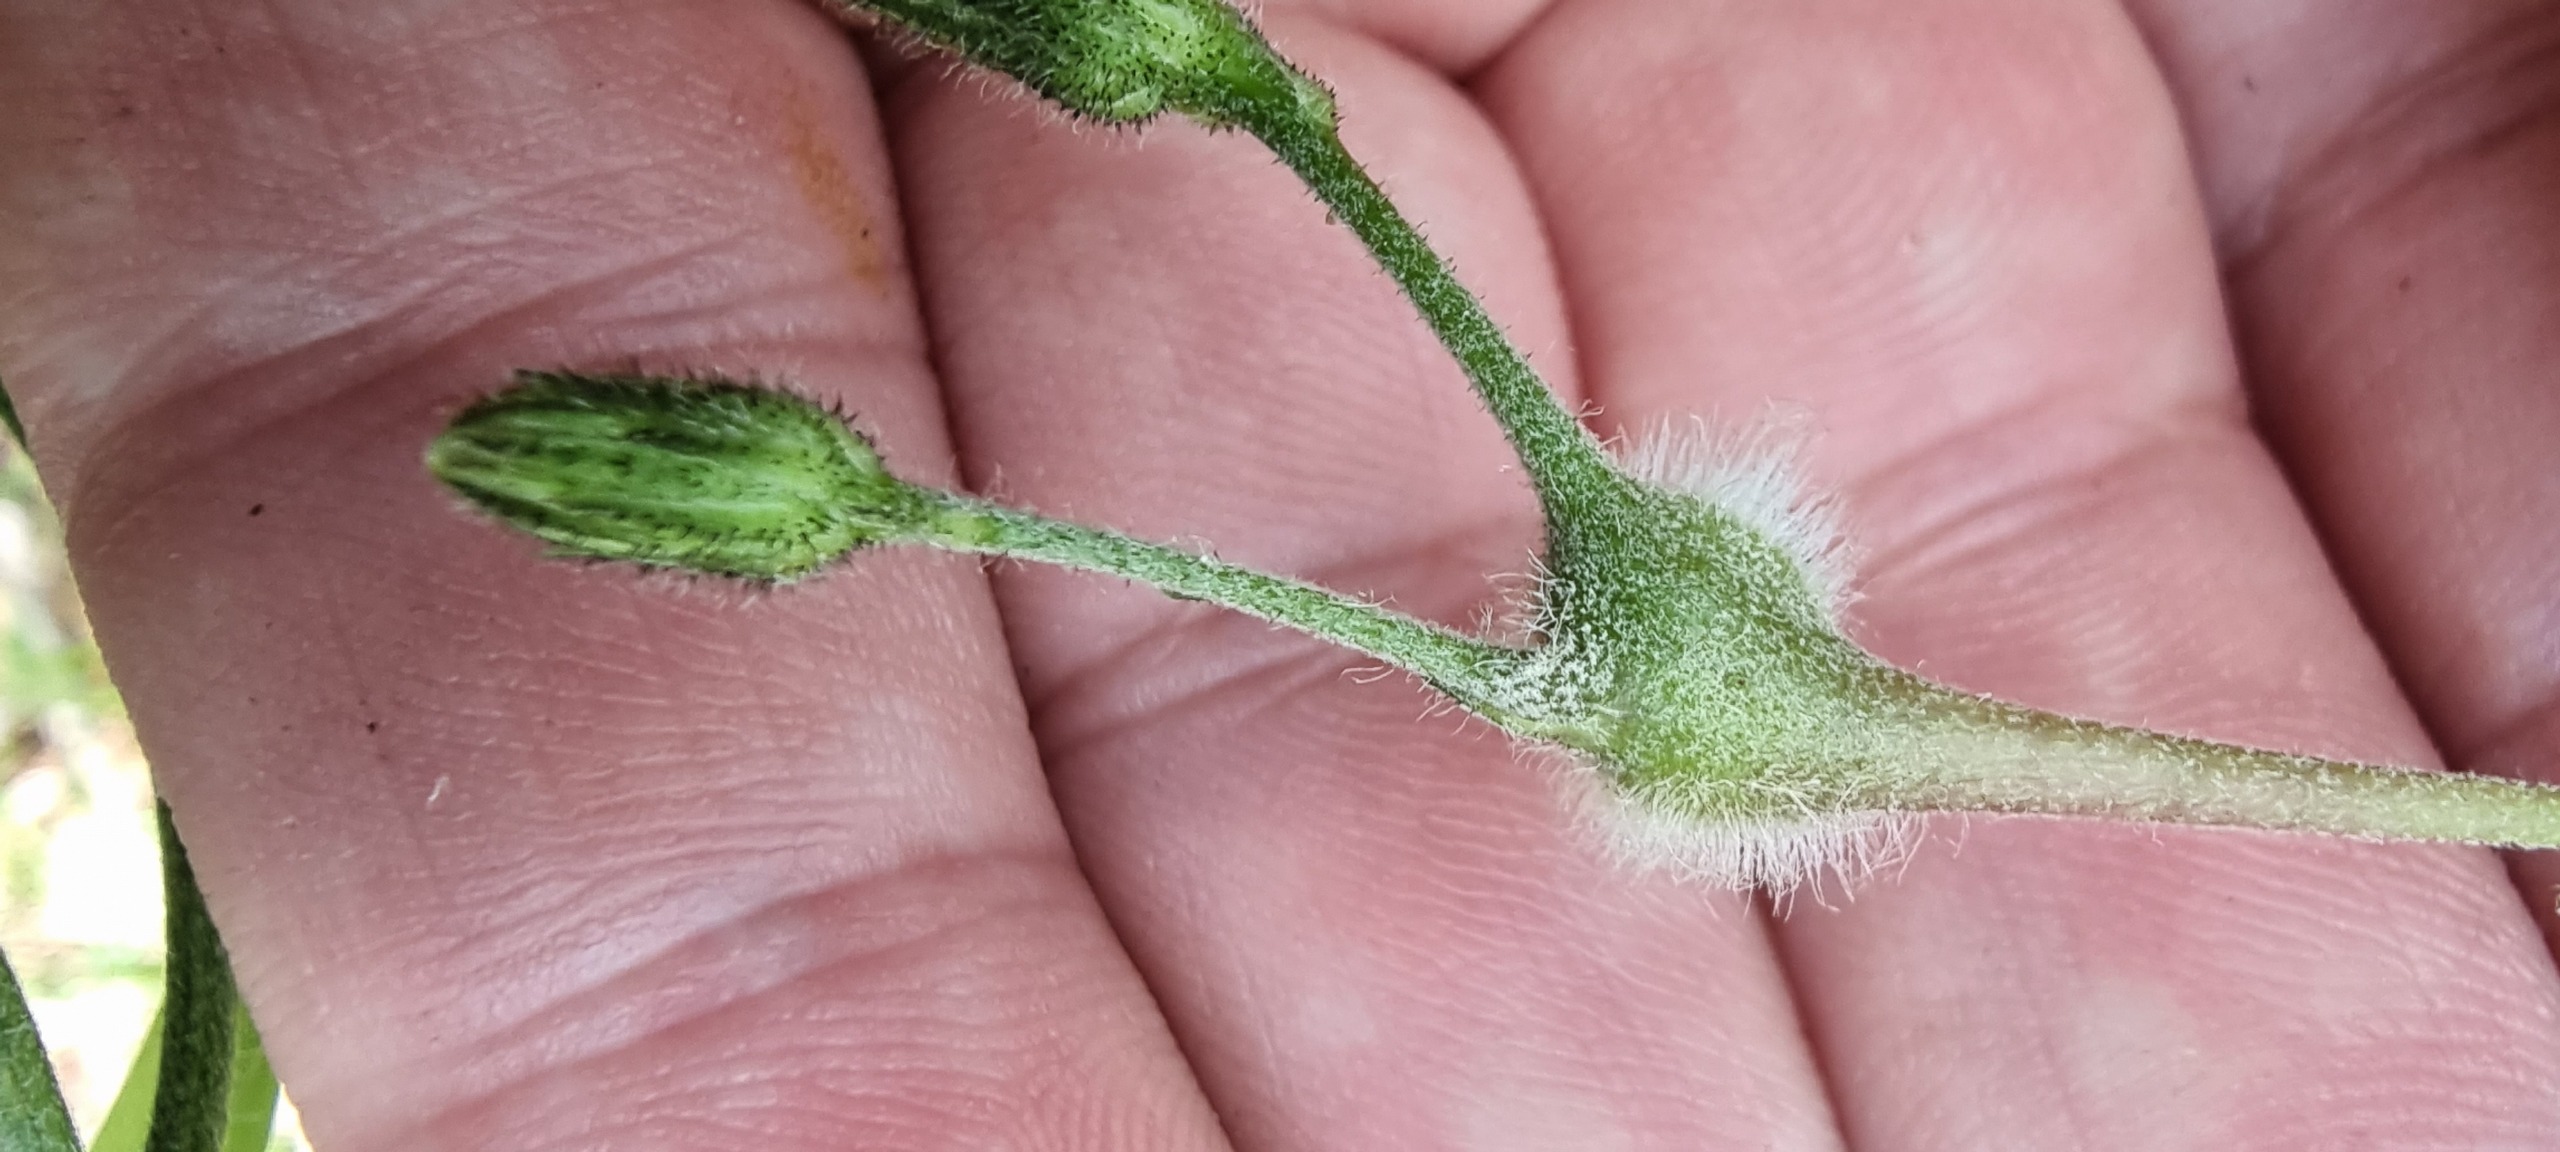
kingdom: Animalia
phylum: Arthropoda
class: Insecta
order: Hymenoptera
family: Cynipidae
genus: Aulacidea
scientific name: Aulacidea hieracii
